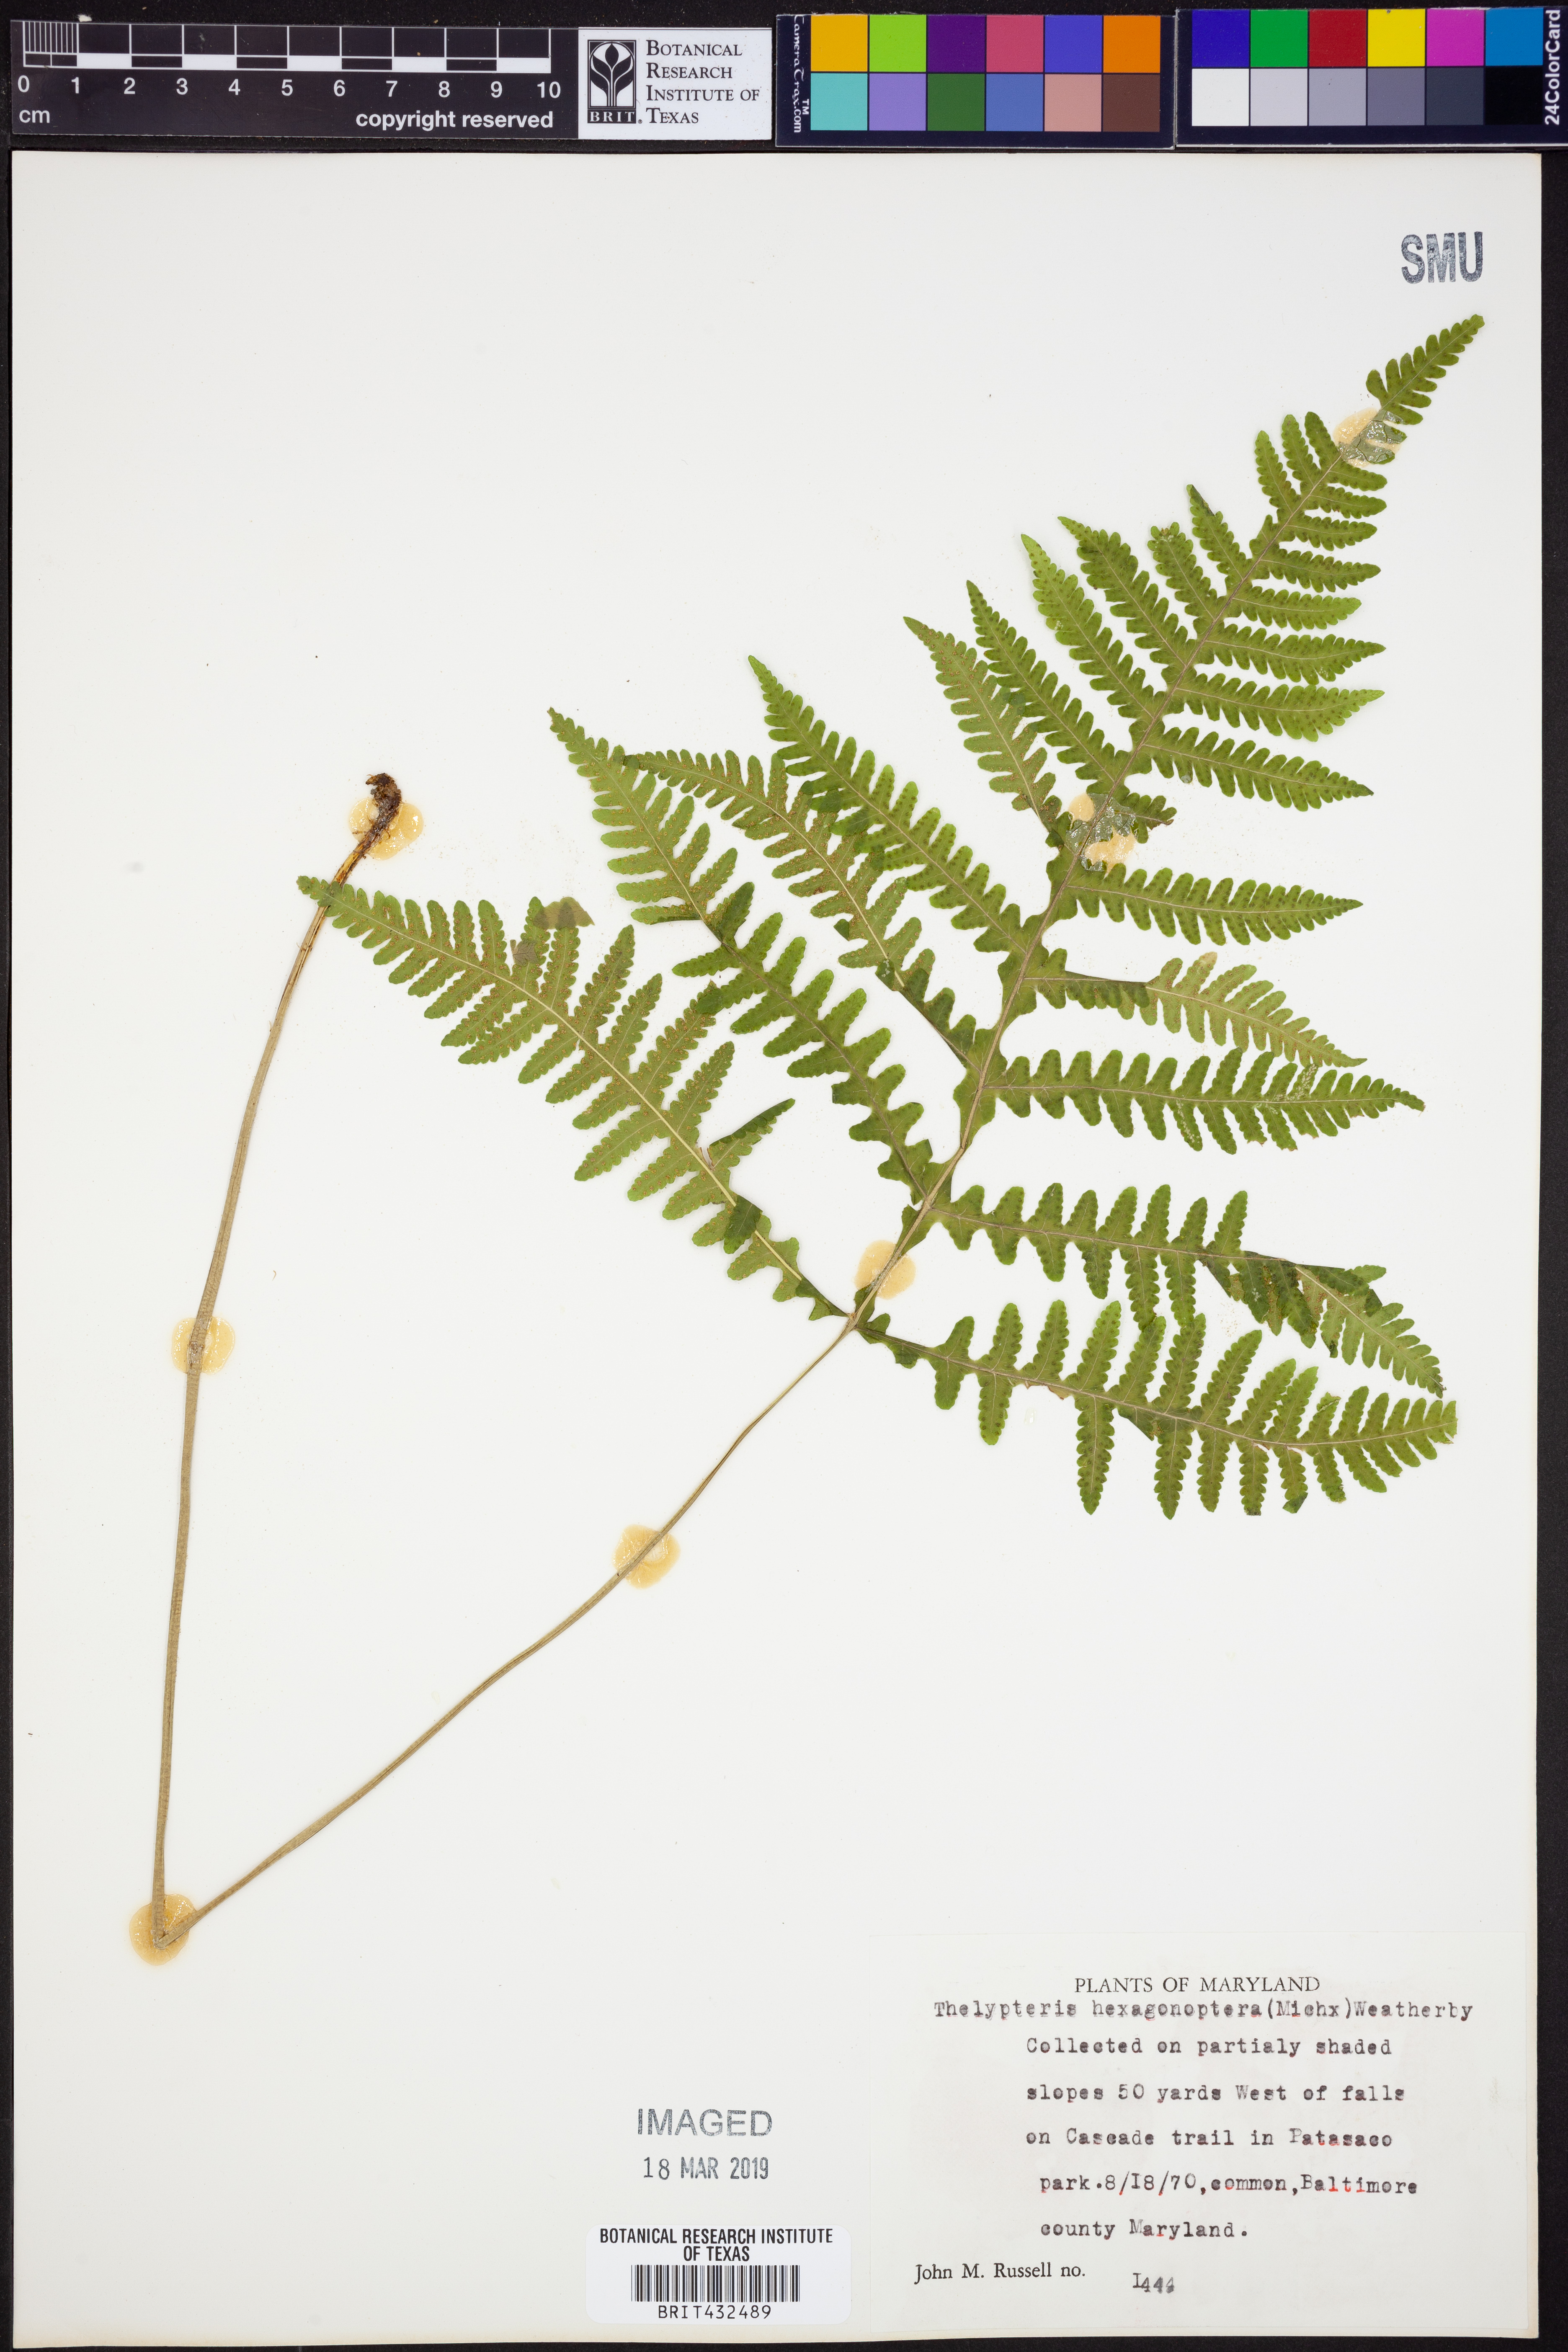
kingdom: Plantae
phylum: Tracheophyta
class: Polypodiopsida
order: Polypodiales
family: Thelypteridaceae
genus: Phegopteris
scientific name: Phegopteris hexagonoptera
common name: Broad beech fern
